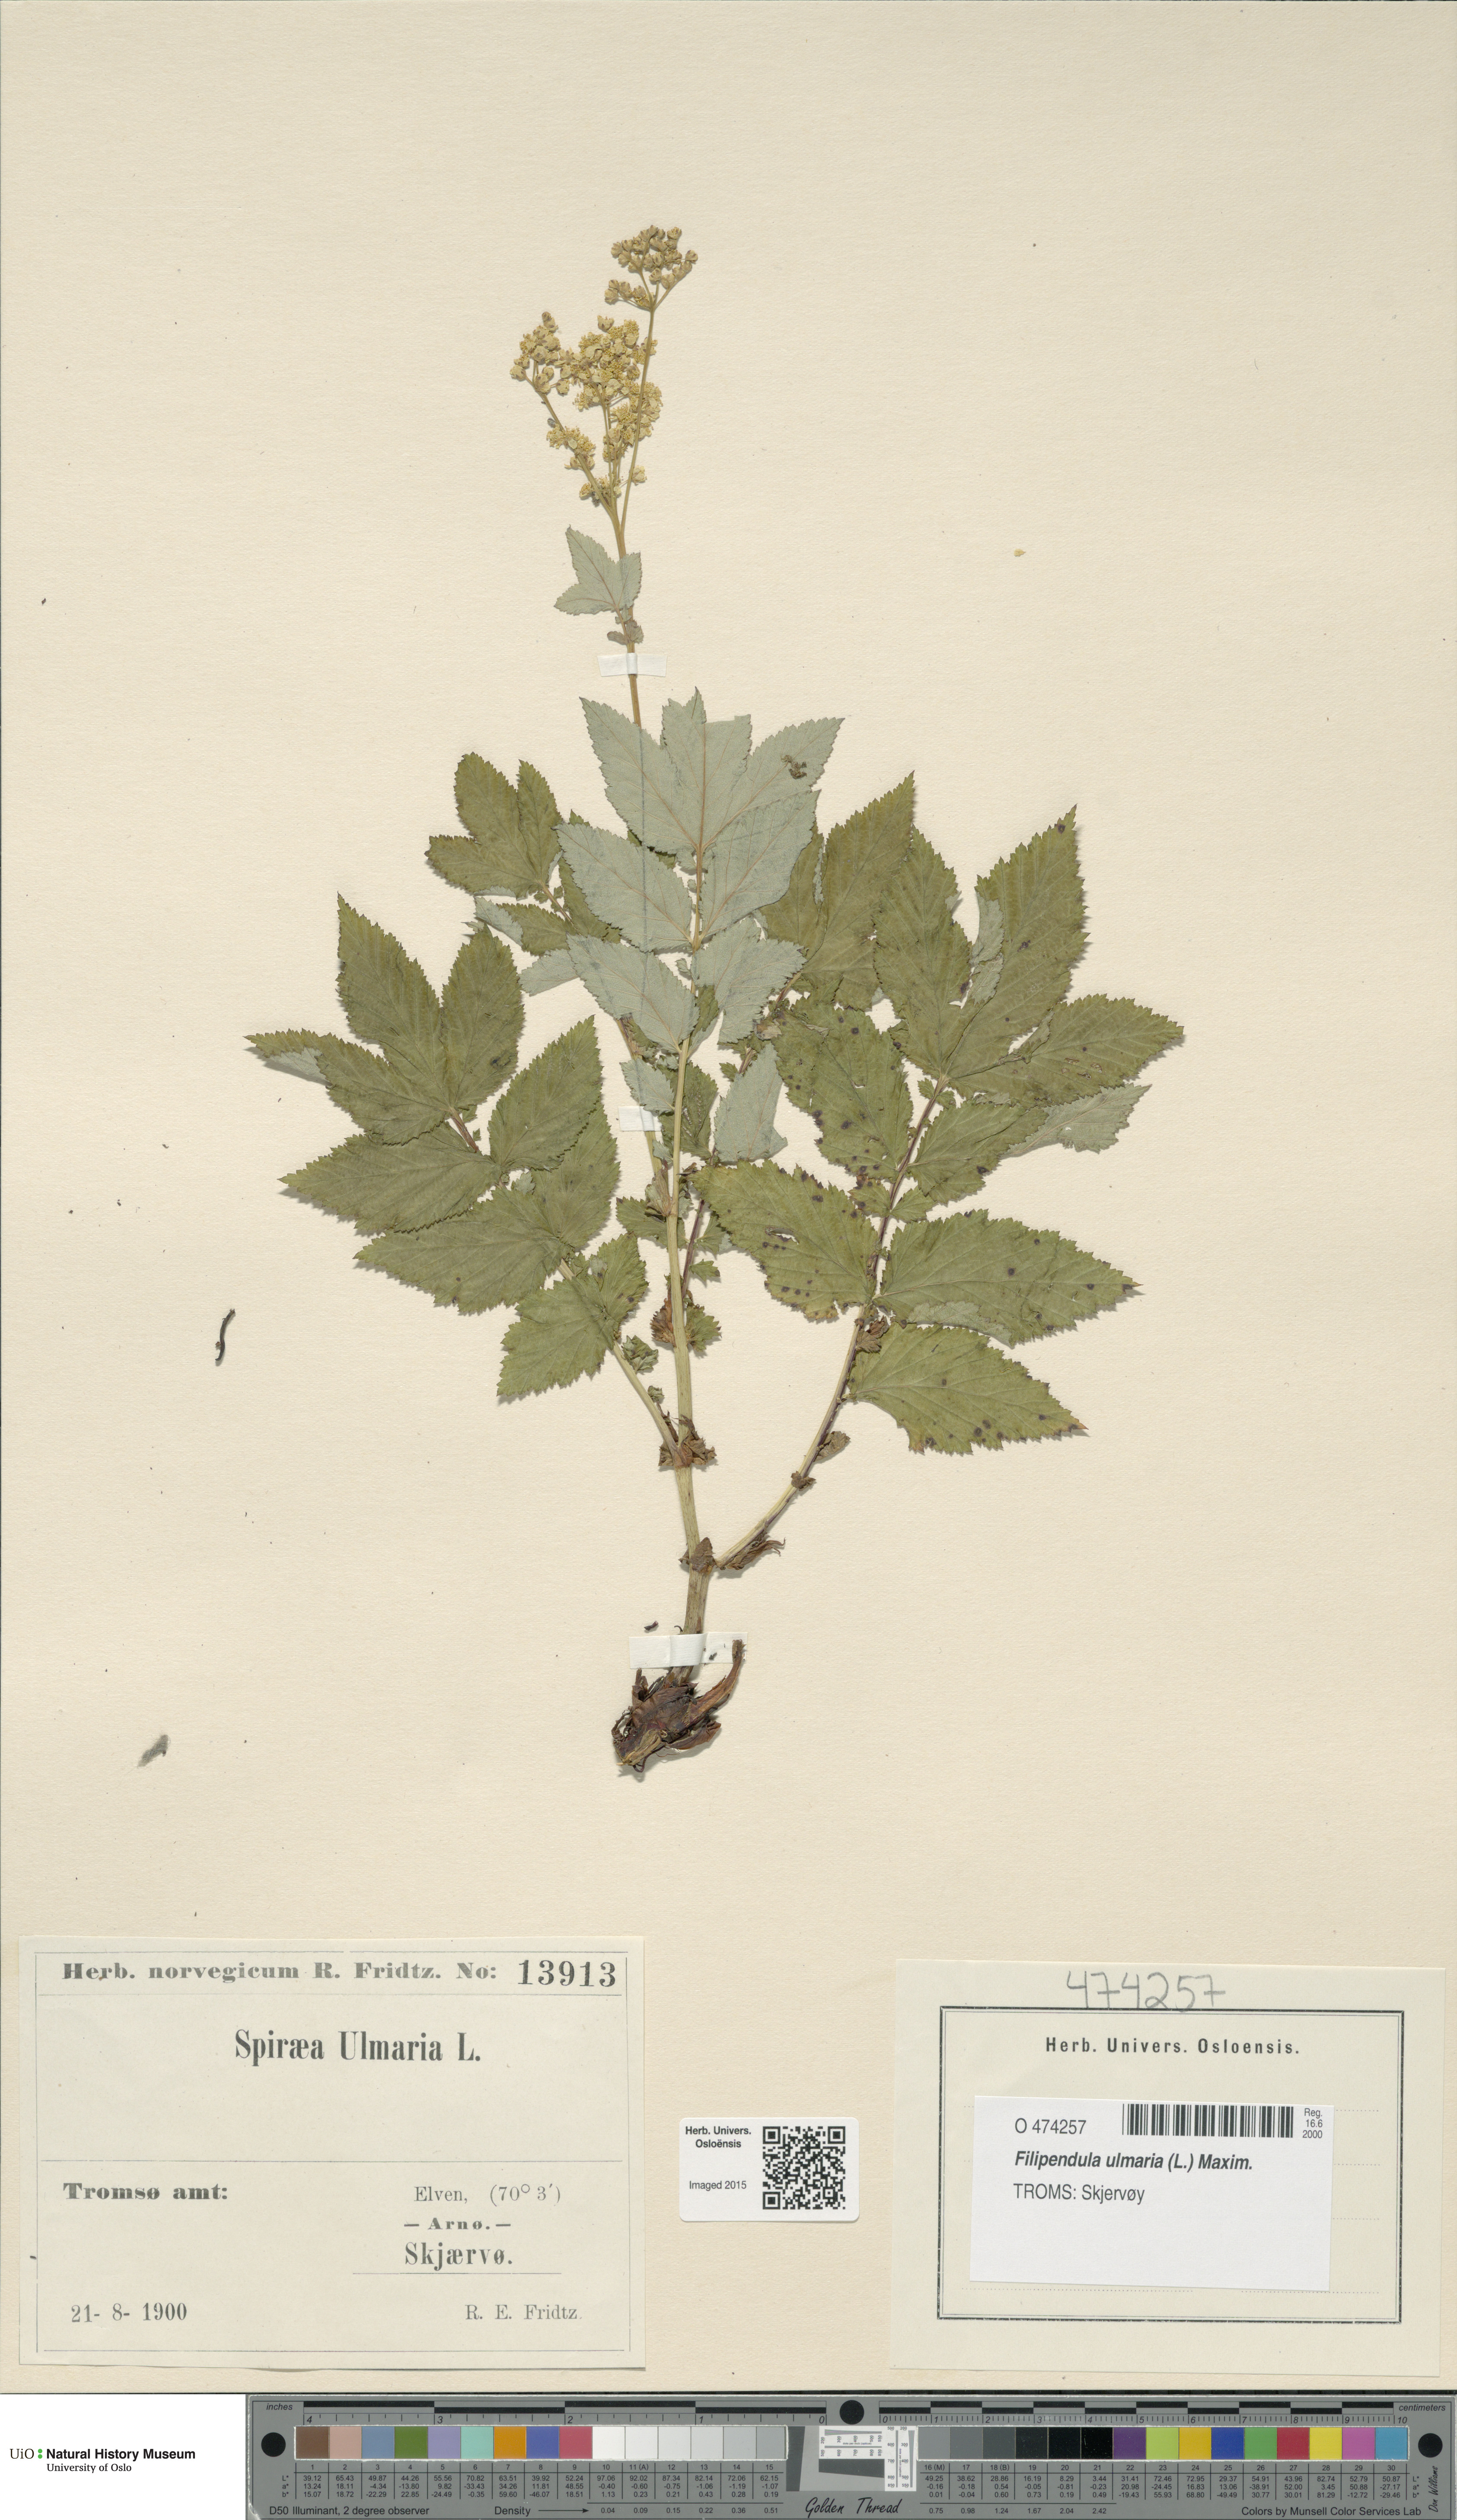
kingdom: Plantae
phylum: Tracheophyta
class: Magnoliopsida
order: Rosales
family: Rosaceae
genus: Filipendula
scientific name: Filipendula ulmaria
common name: Meadowsweet
